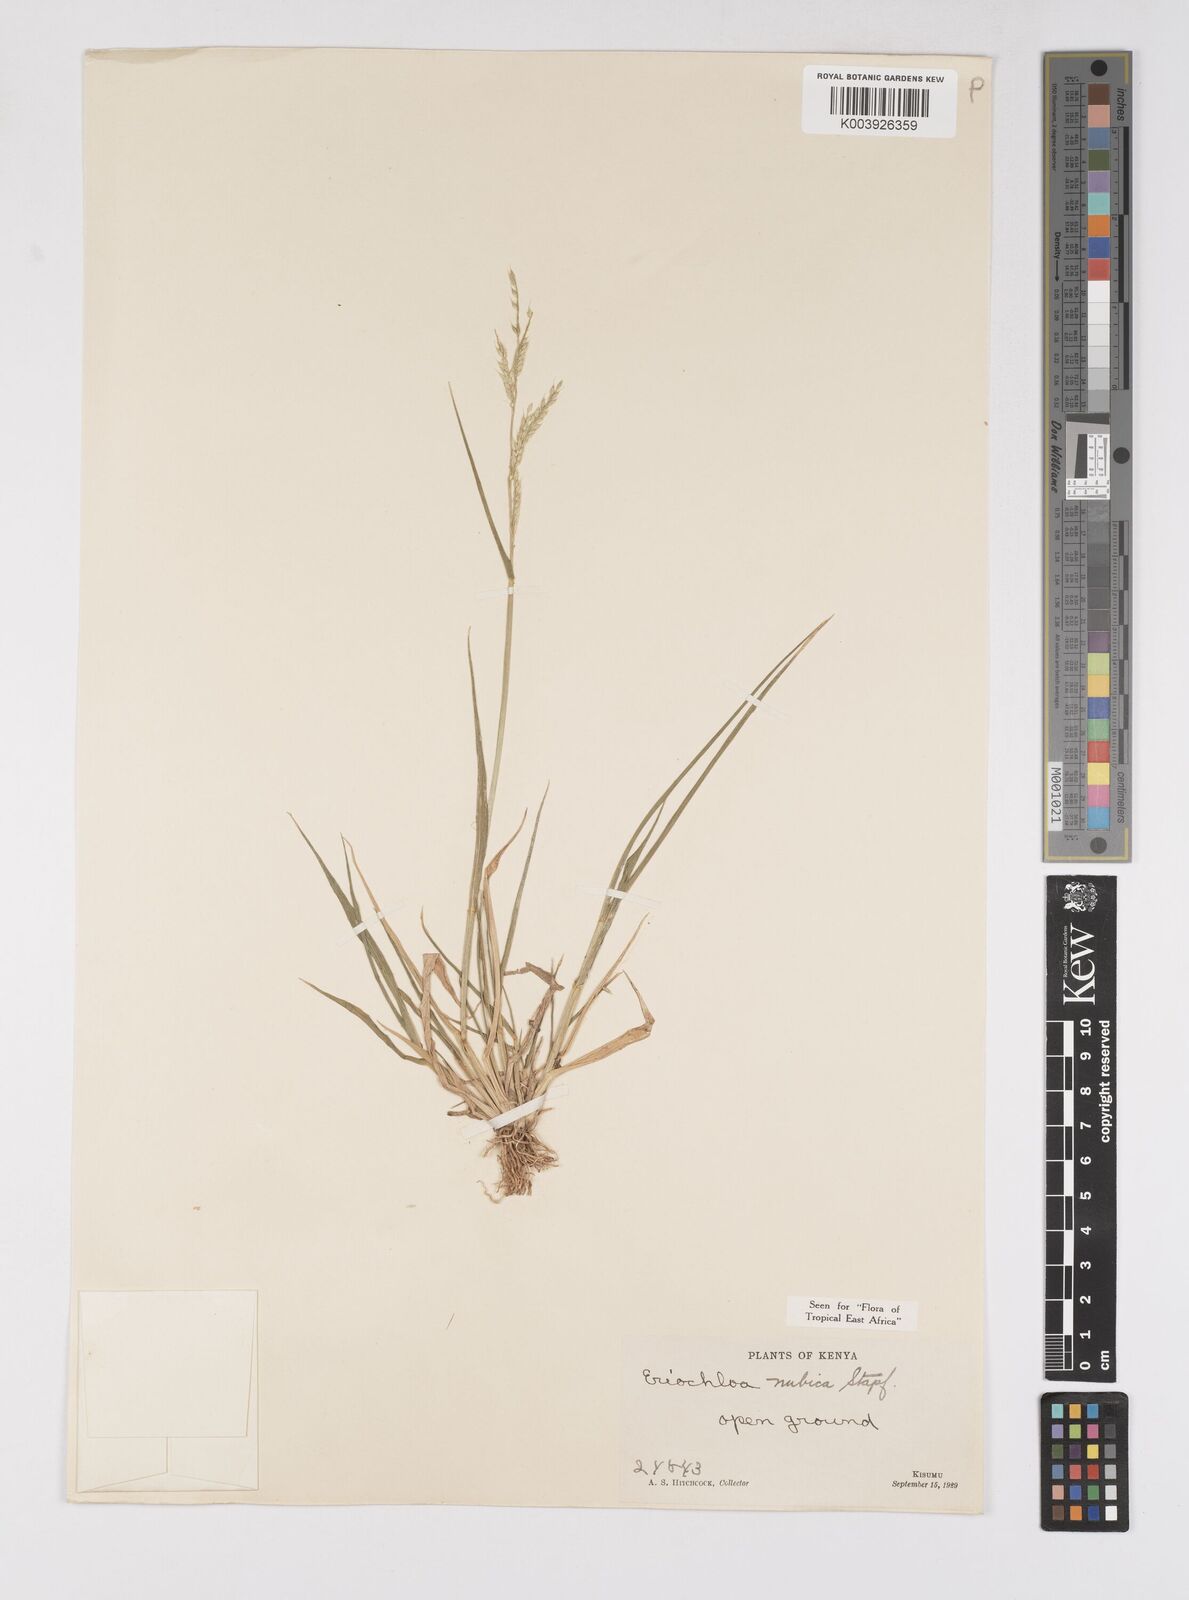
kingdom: Plantae
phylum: Tracheophyta
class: Liliopsida
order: Poales
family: Poaceae
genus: Eriochloa
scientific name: Eriochloa barbatus
